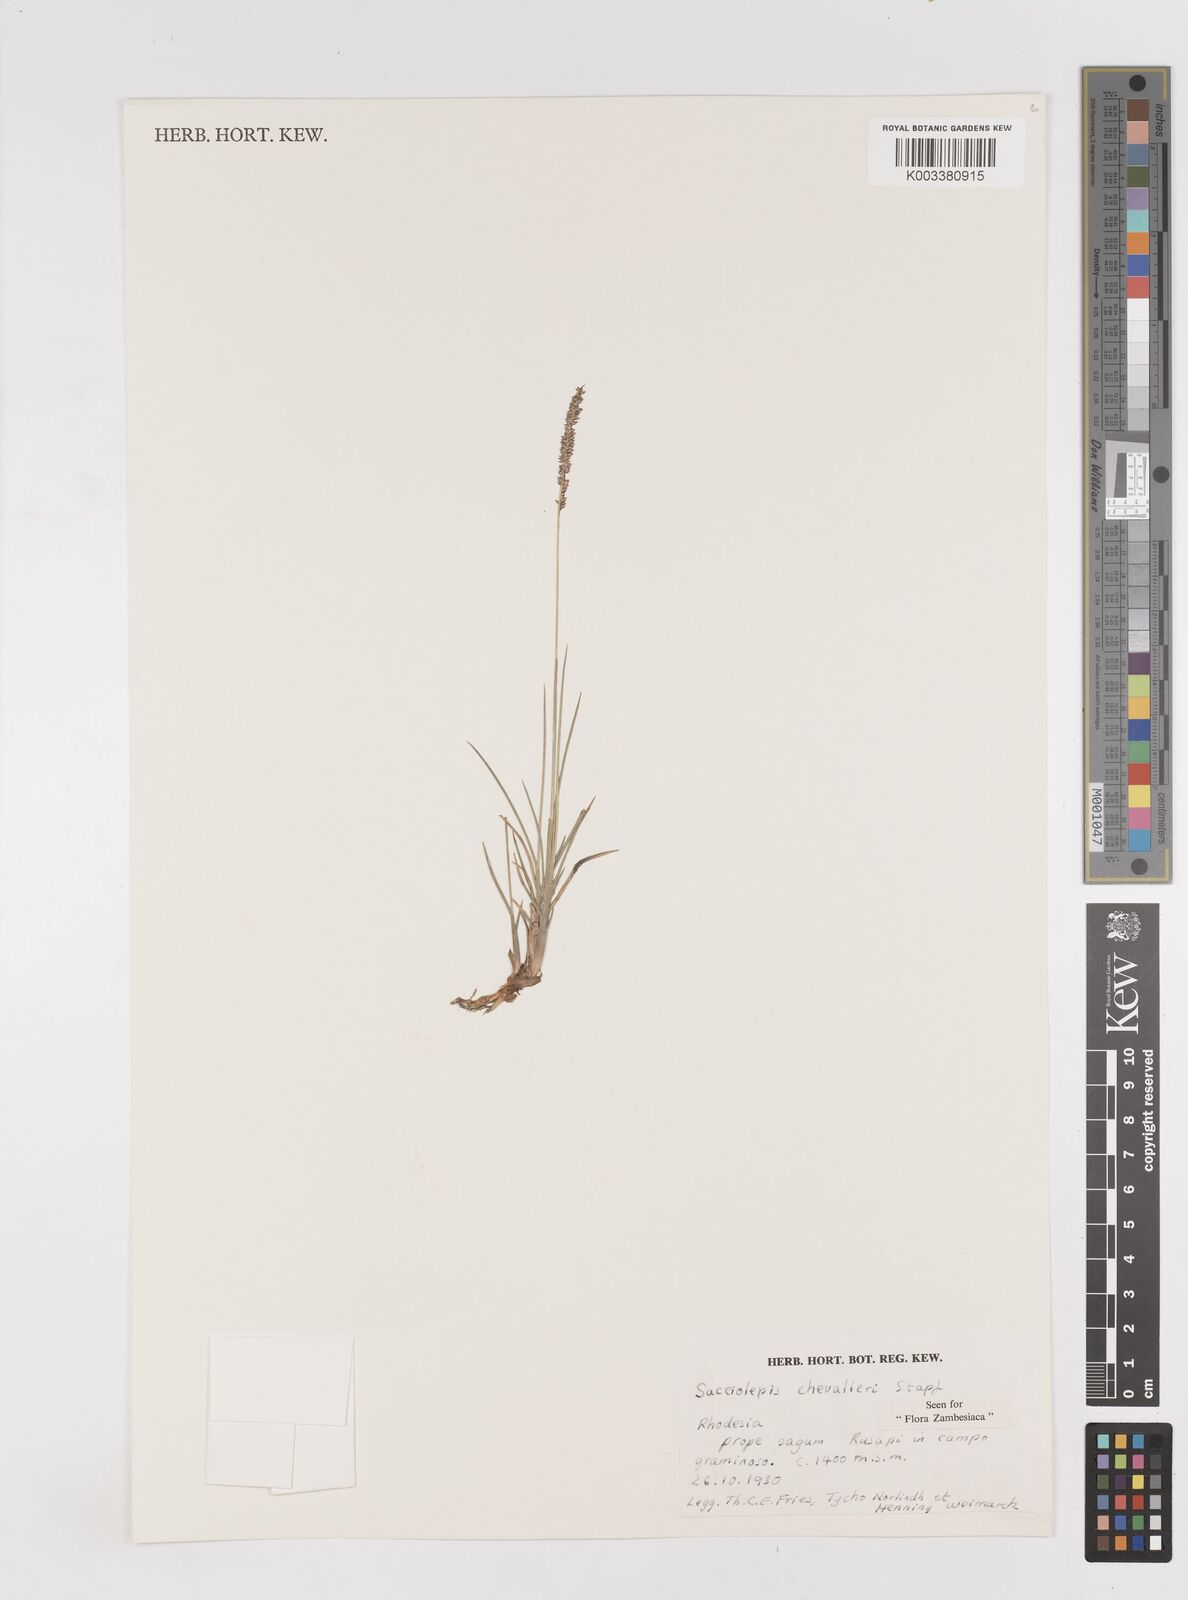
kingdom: Plantae
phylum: Tracheophyta
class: Liliopsida
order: Poales
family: Poaceae
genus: Sacciolepis
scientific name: Sacciolepis chevalieri
